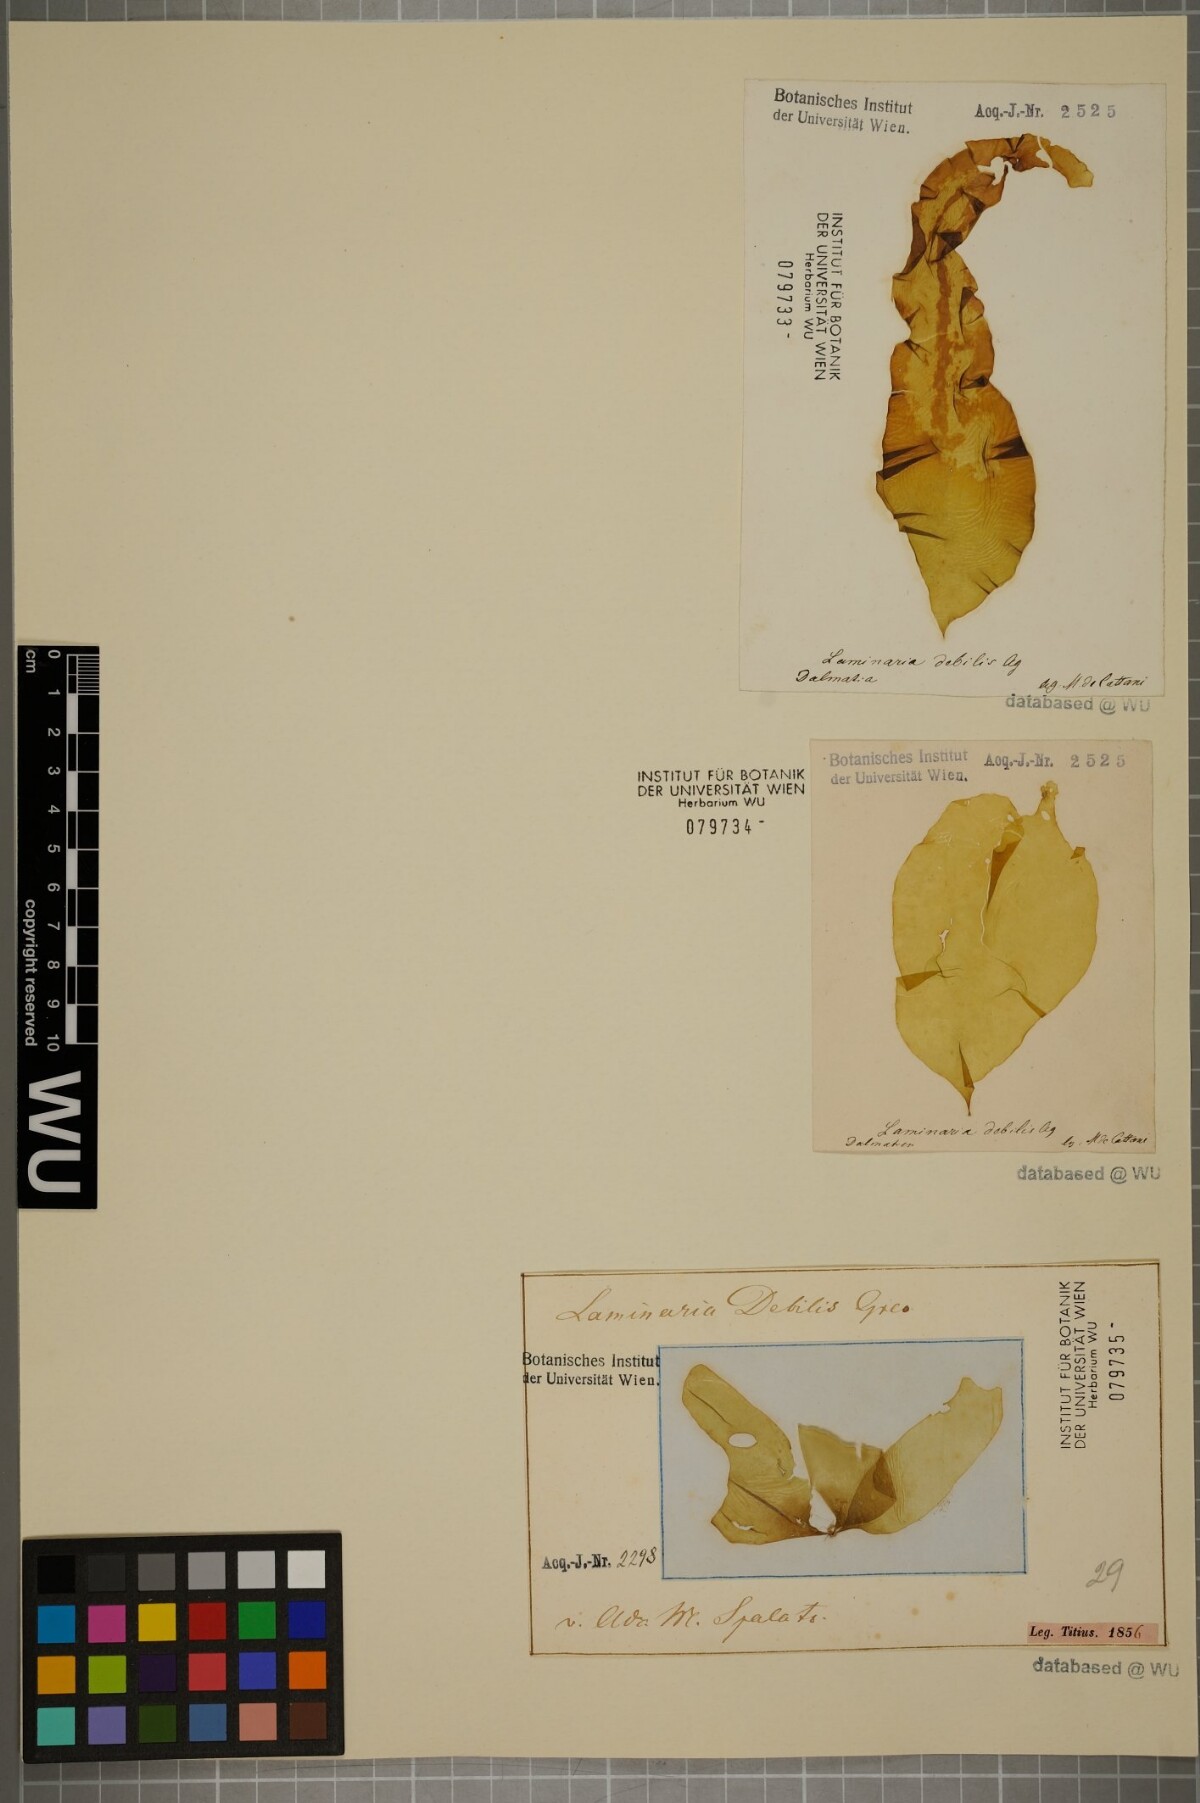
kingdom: Chromista
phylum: Ochrophyta
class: Phaeophyceae
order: Laminariales
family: Laminariaceae
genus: Laminaria
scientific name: Laminaria
